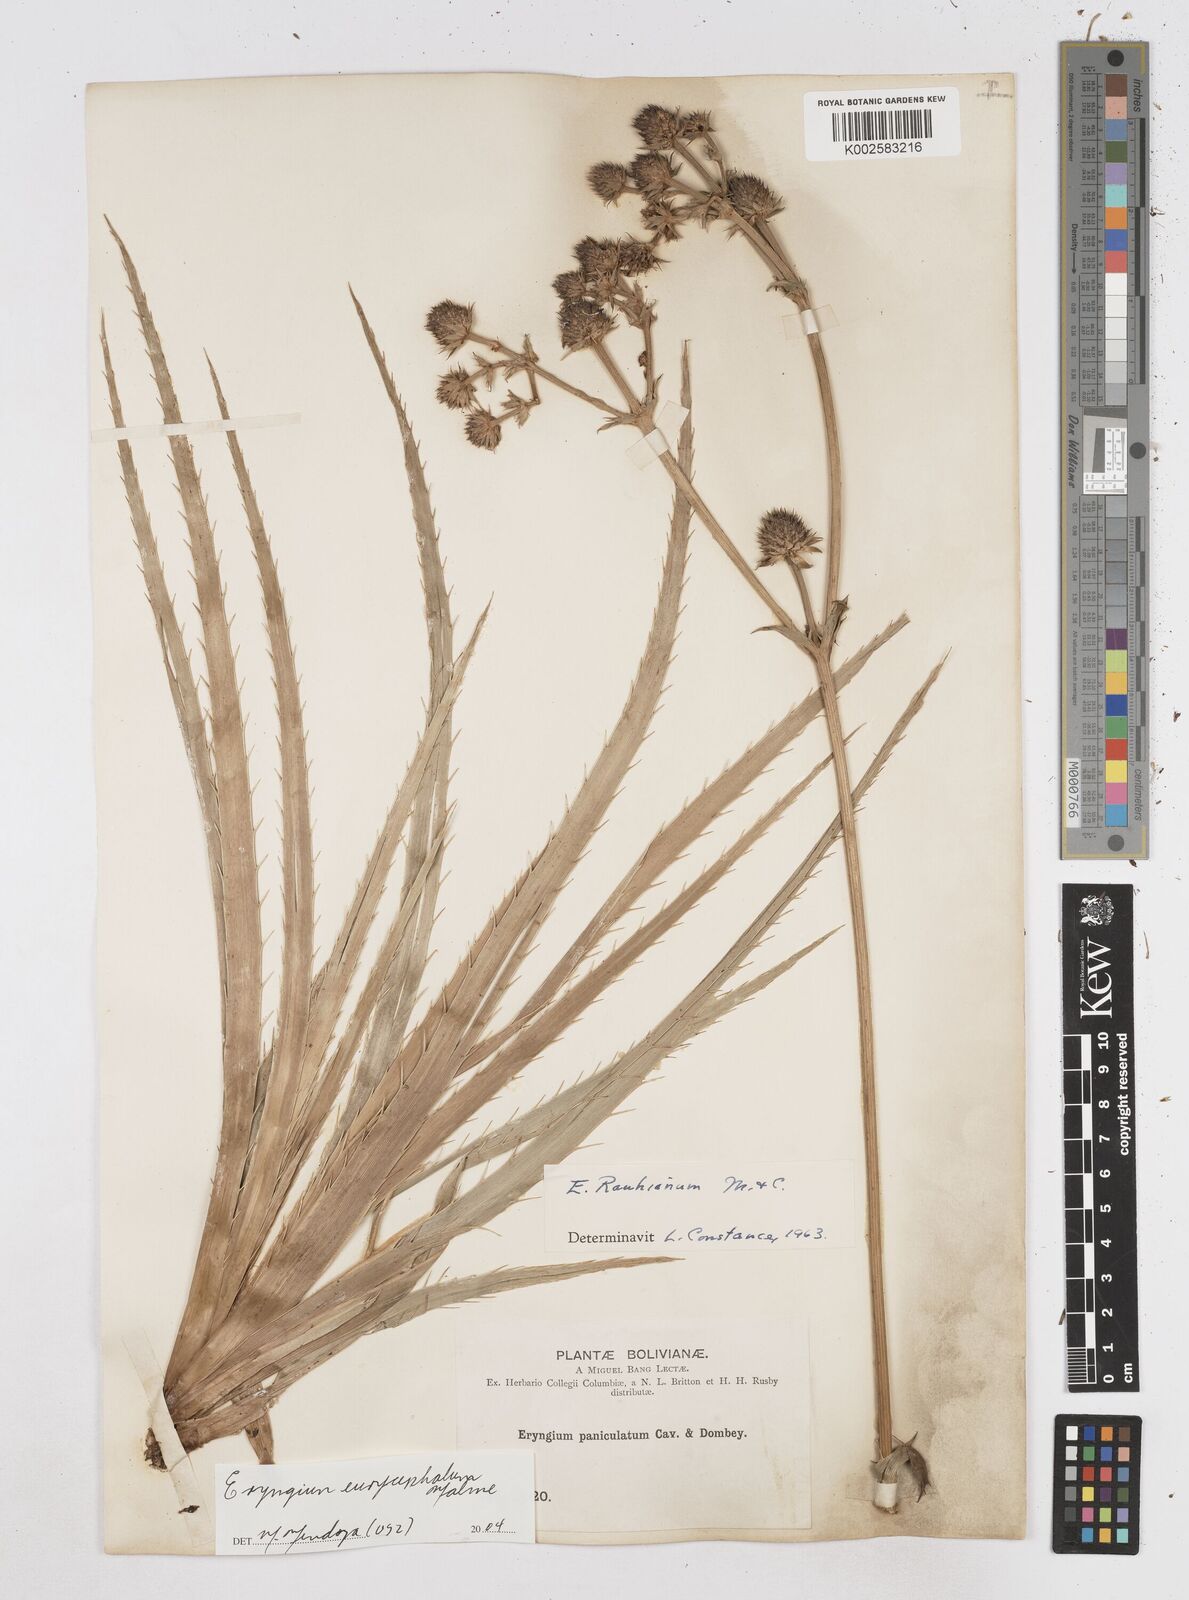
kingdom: Plantae
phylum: Tracheophyta
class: Magnoliopsida
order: Apiales
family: Apiaceae
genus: Eryngium
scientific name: Eryngium eurycephalum
